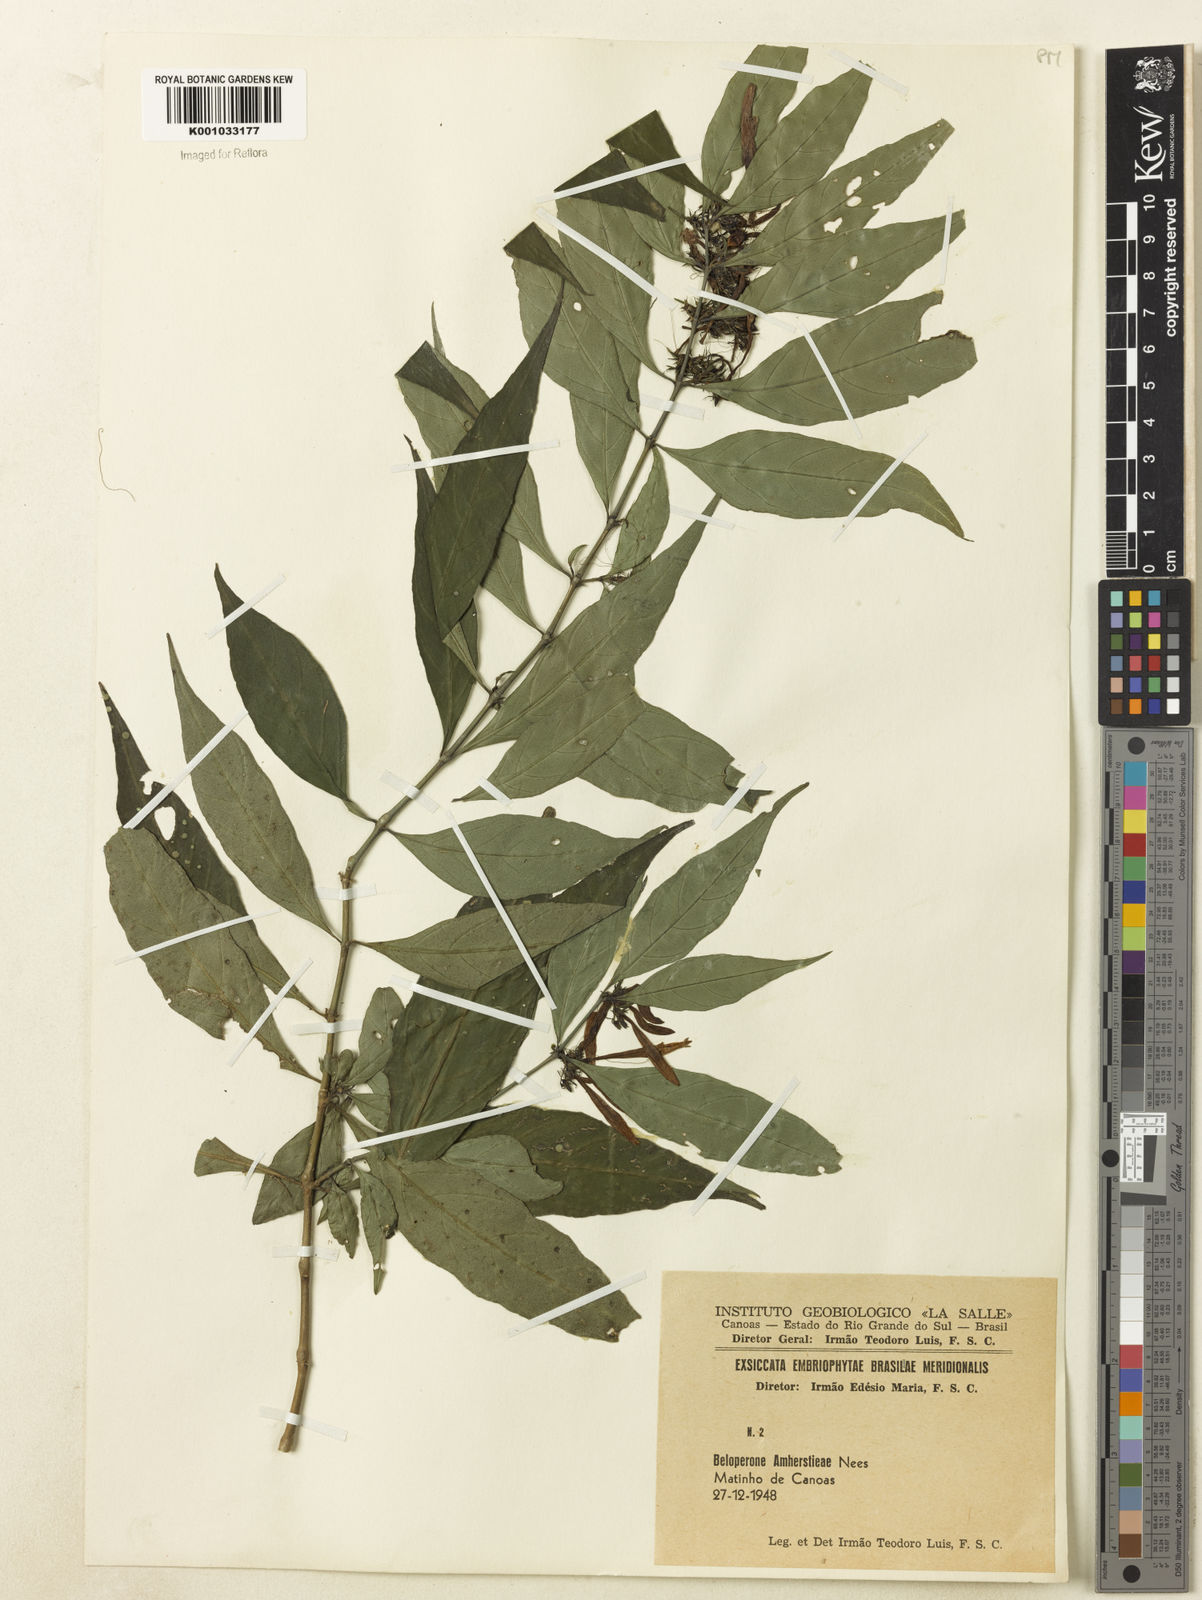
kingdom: Plantae
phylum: Tracheophyta
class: Magnoliopsida
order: Lamiales
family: Acanthaceae
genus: Justicia
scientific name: Justicia brasiliana
